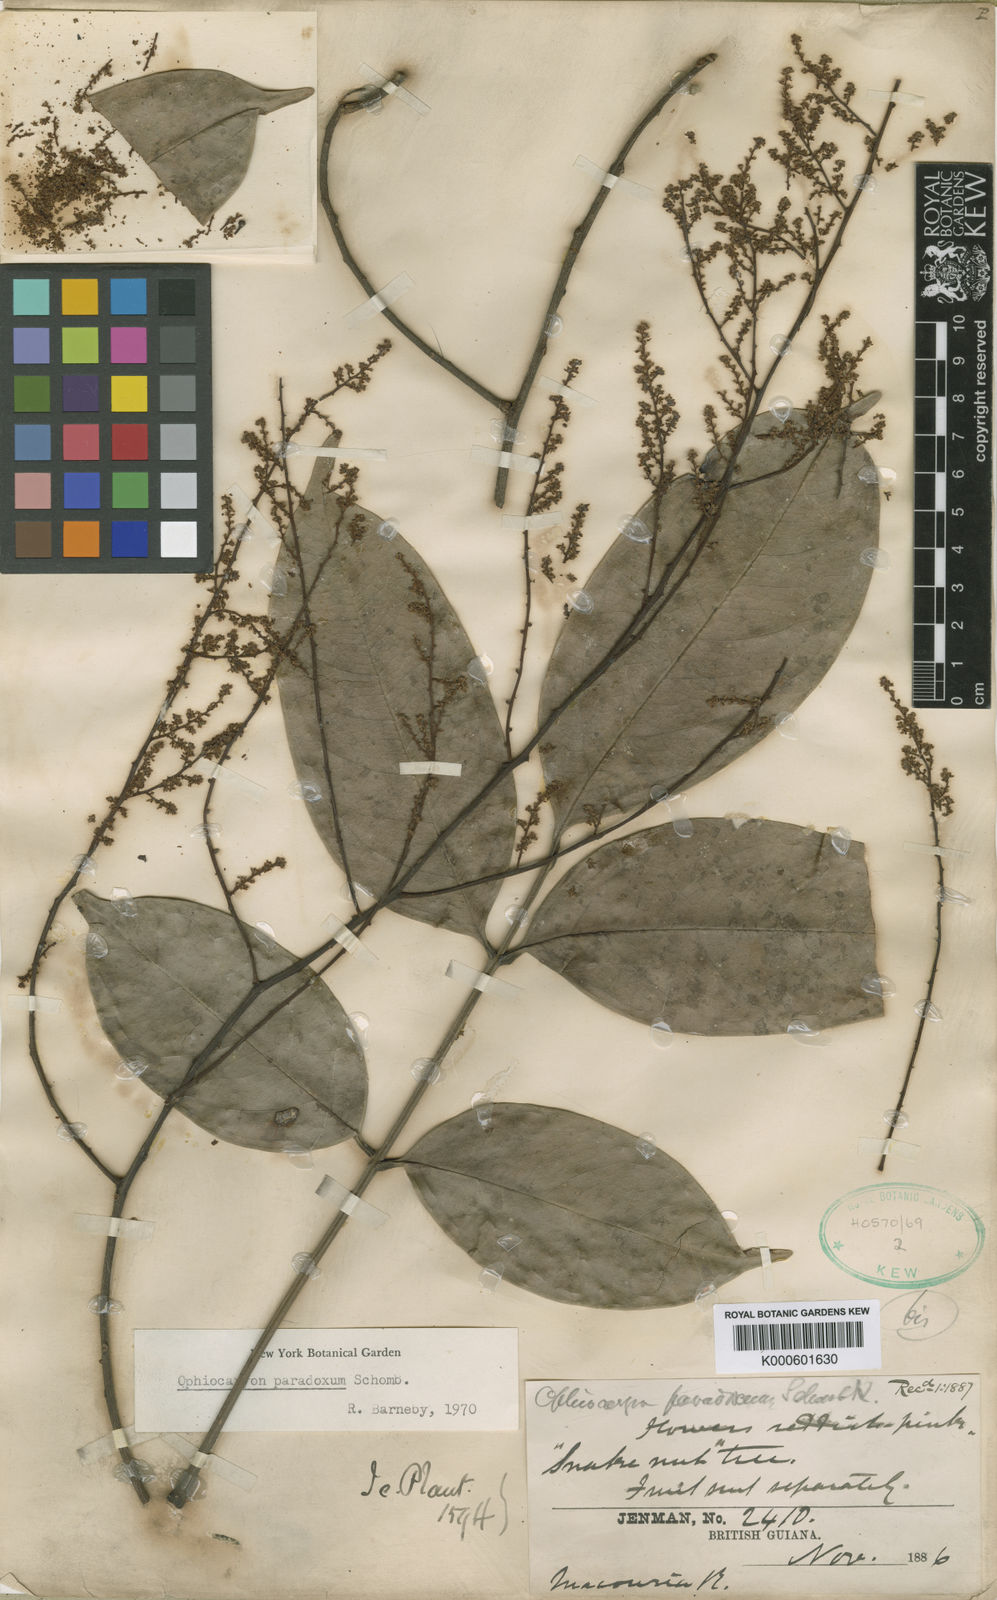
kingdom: Plantae
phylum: Tracheophyta
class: Magnoliopsida
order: Proteales
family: Sabiaceae
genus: Ophiocaryon
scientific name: Ophiocaryon paradoxum
